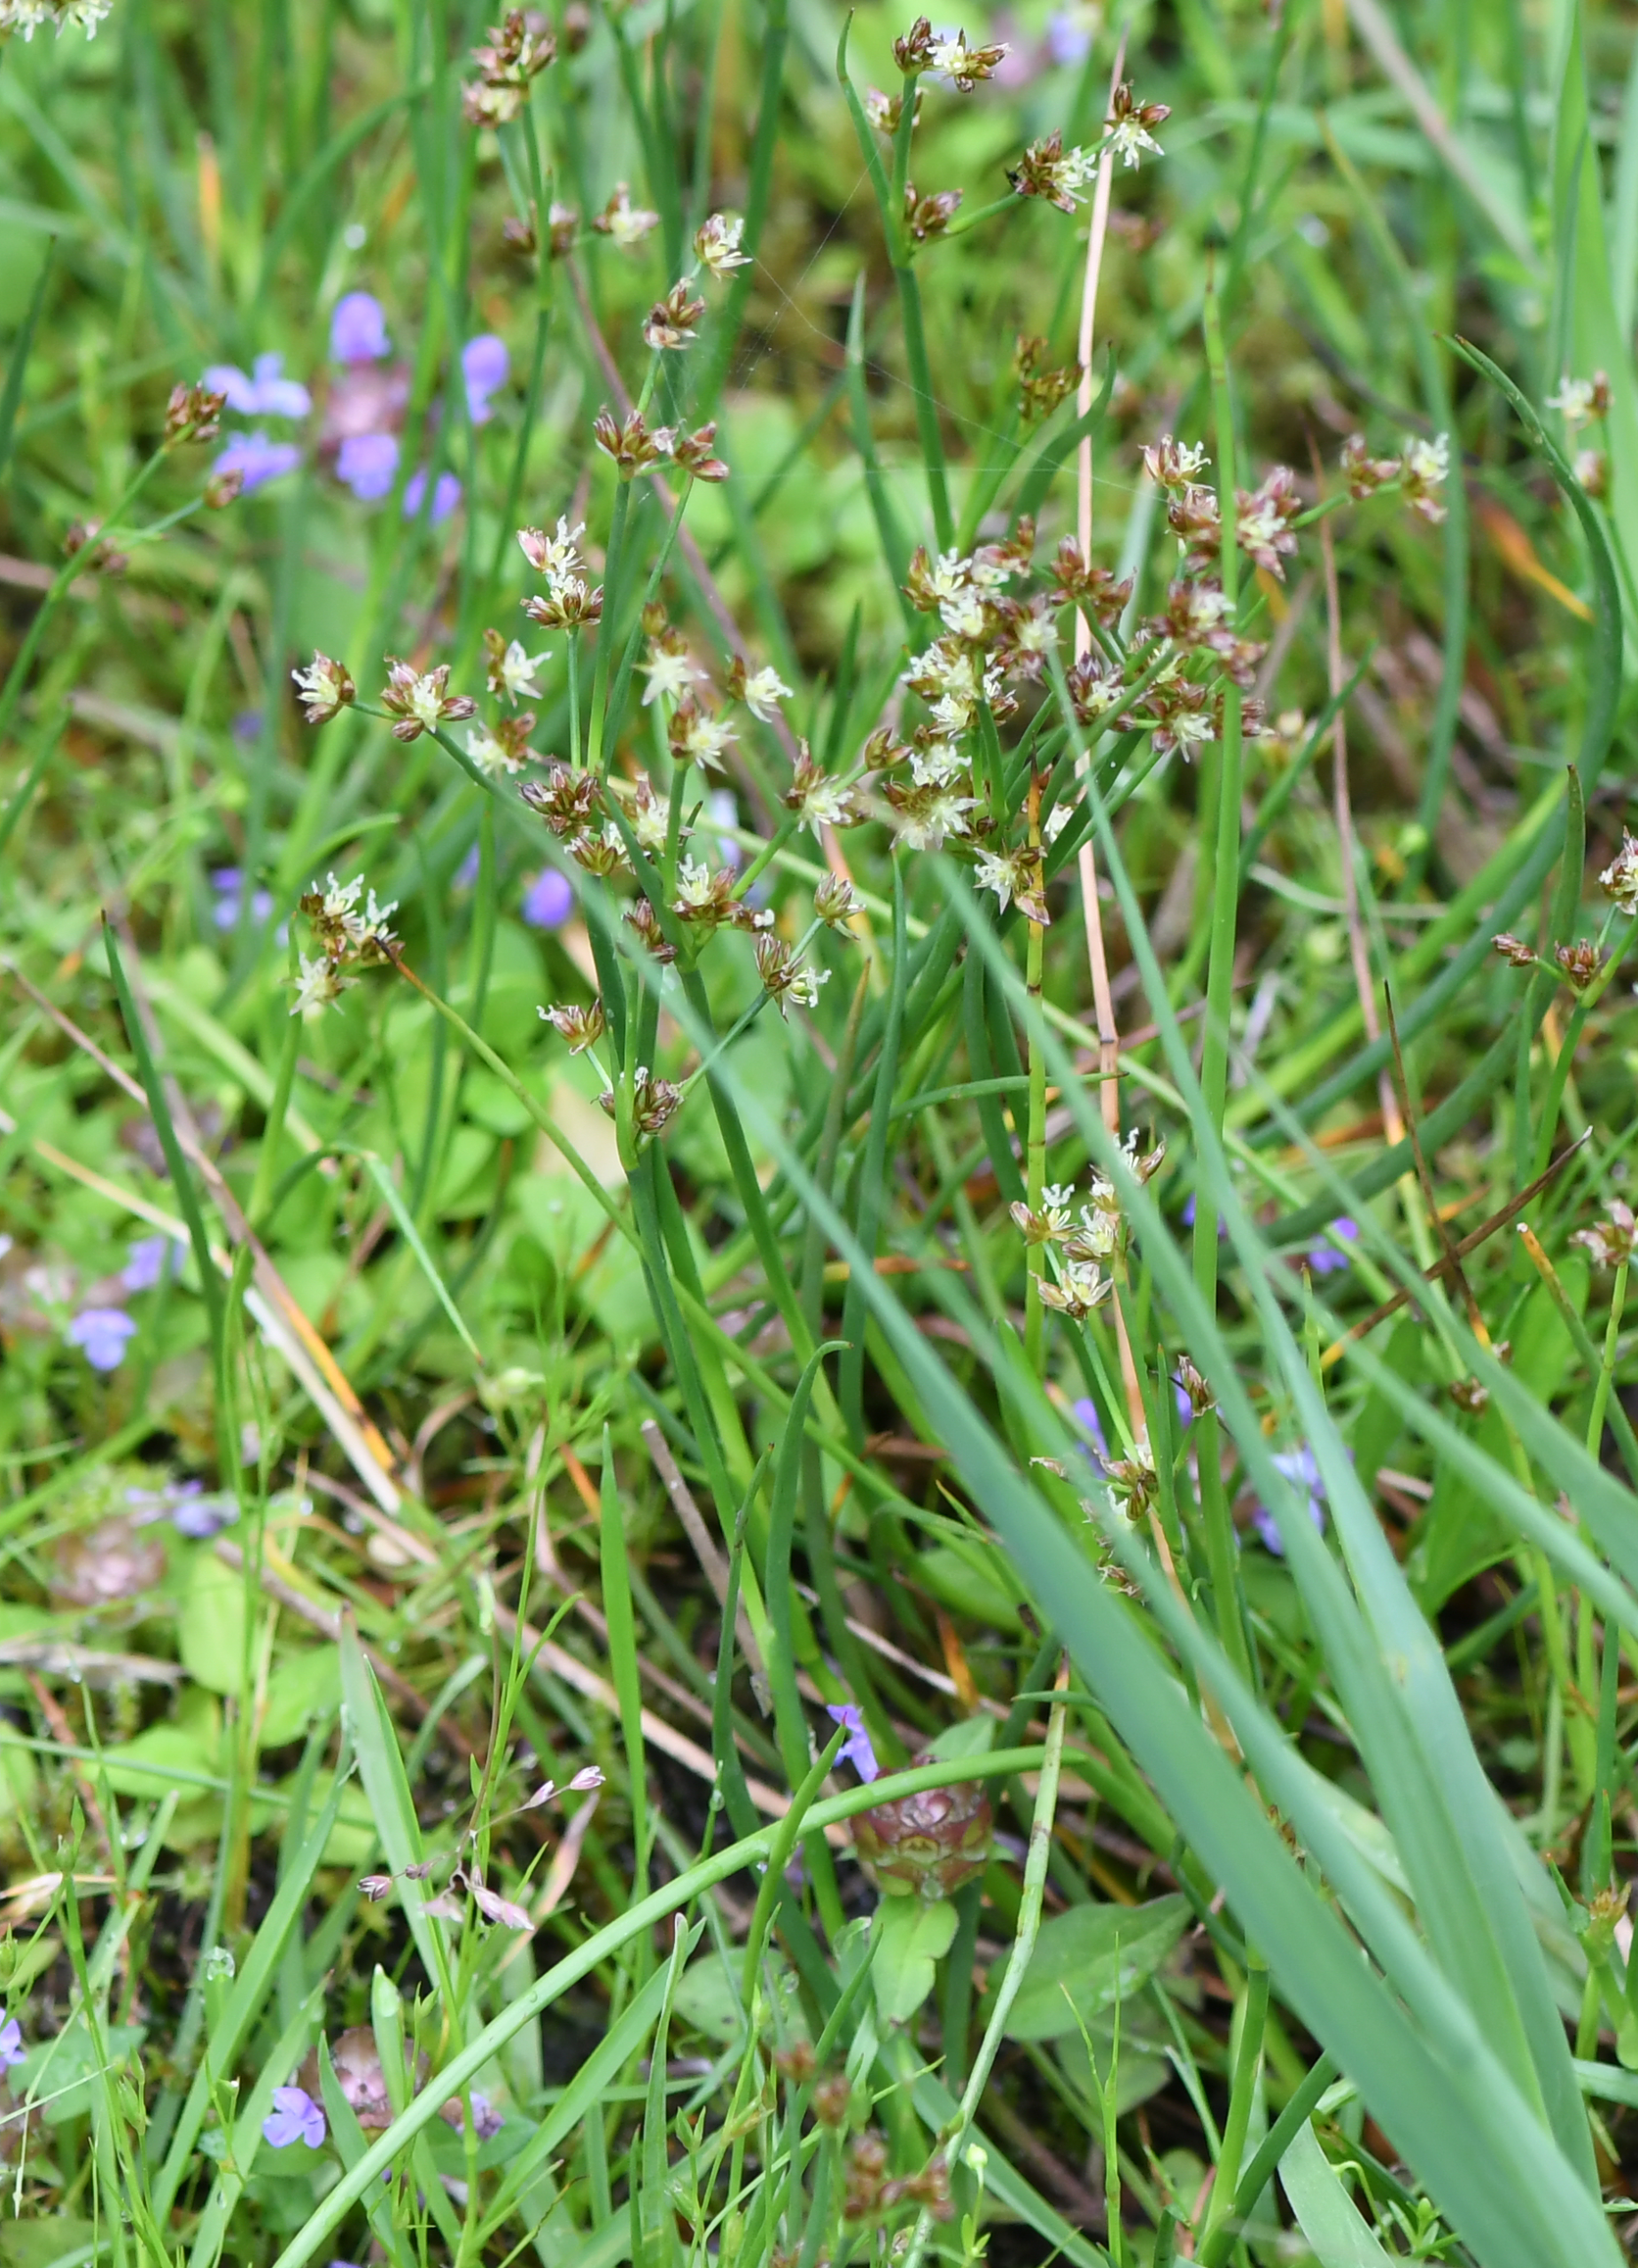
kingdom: Plantae
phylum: Tracheophyta
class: Liliopsida
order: Poales
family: Juncaceae
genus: Juncus
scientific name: Juncus articulatus
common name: Glanskapslet siv
